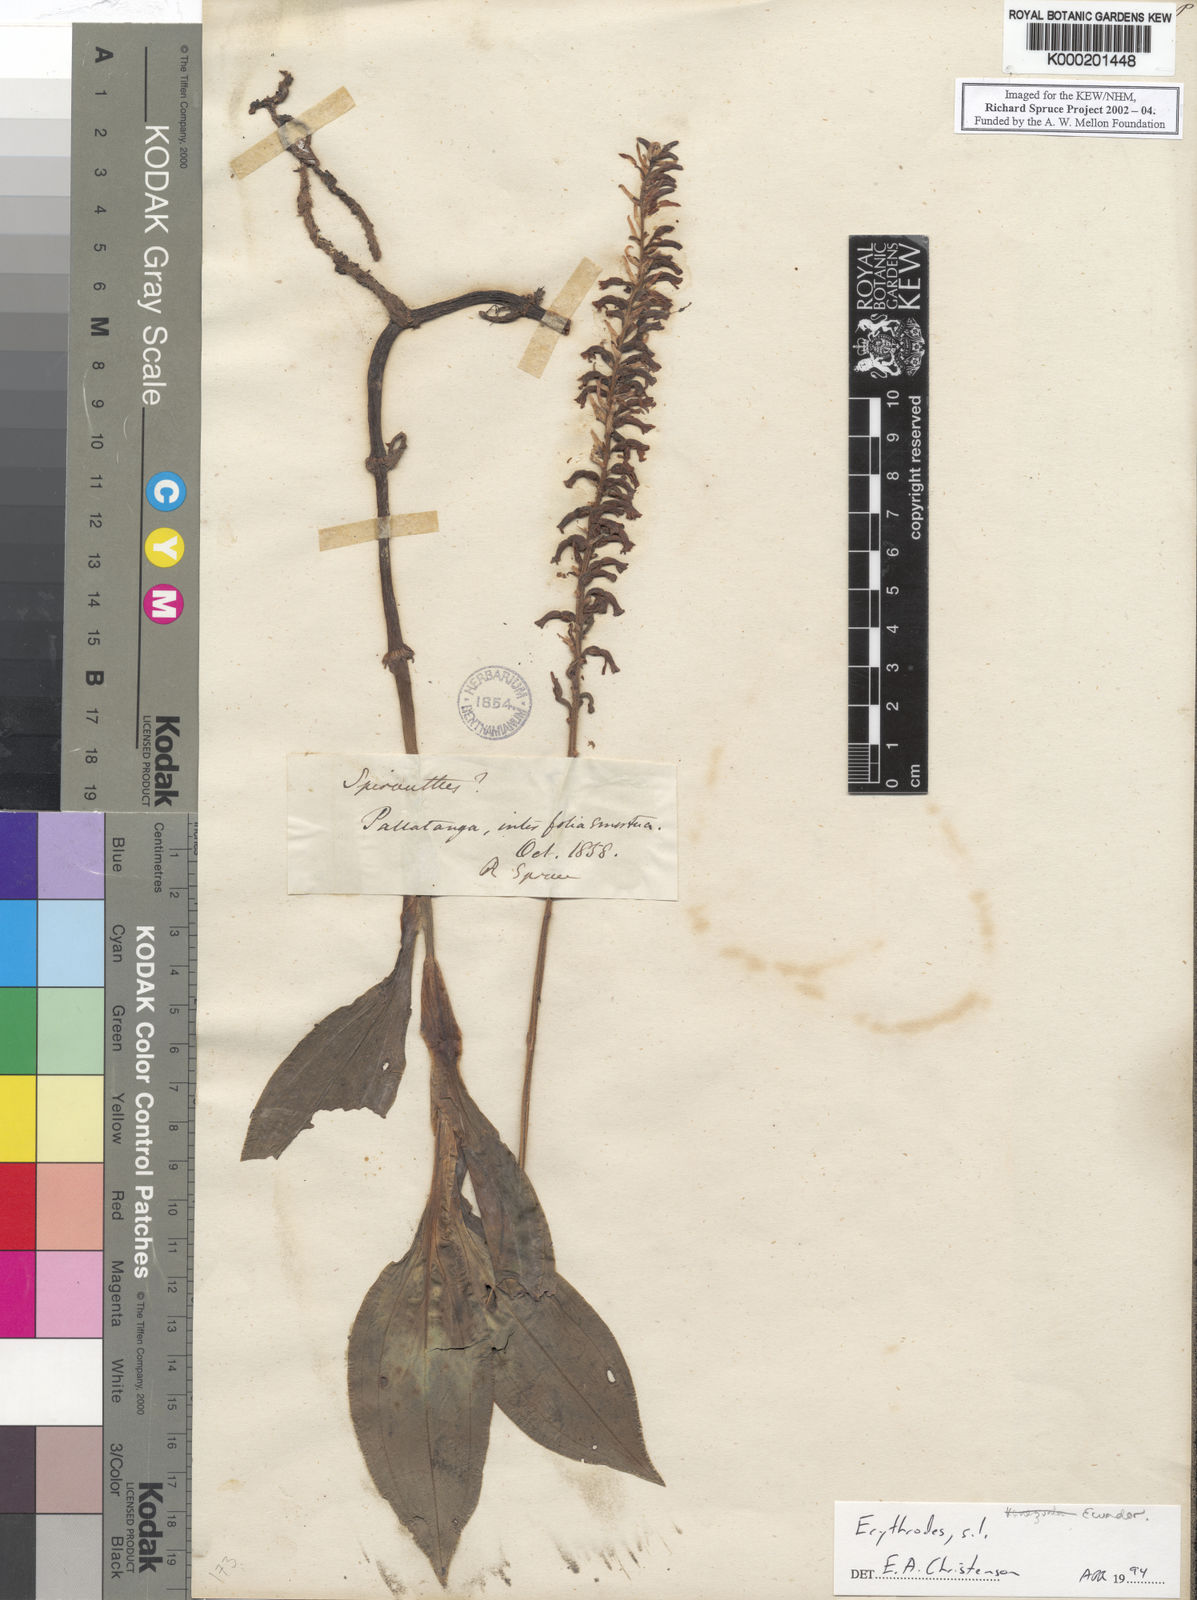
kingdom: Plantae
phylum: Tracheophyta
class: Liliopsida
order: Asparagales
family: Orchidaceae
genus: Erythrodes
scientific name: Erythrodes
